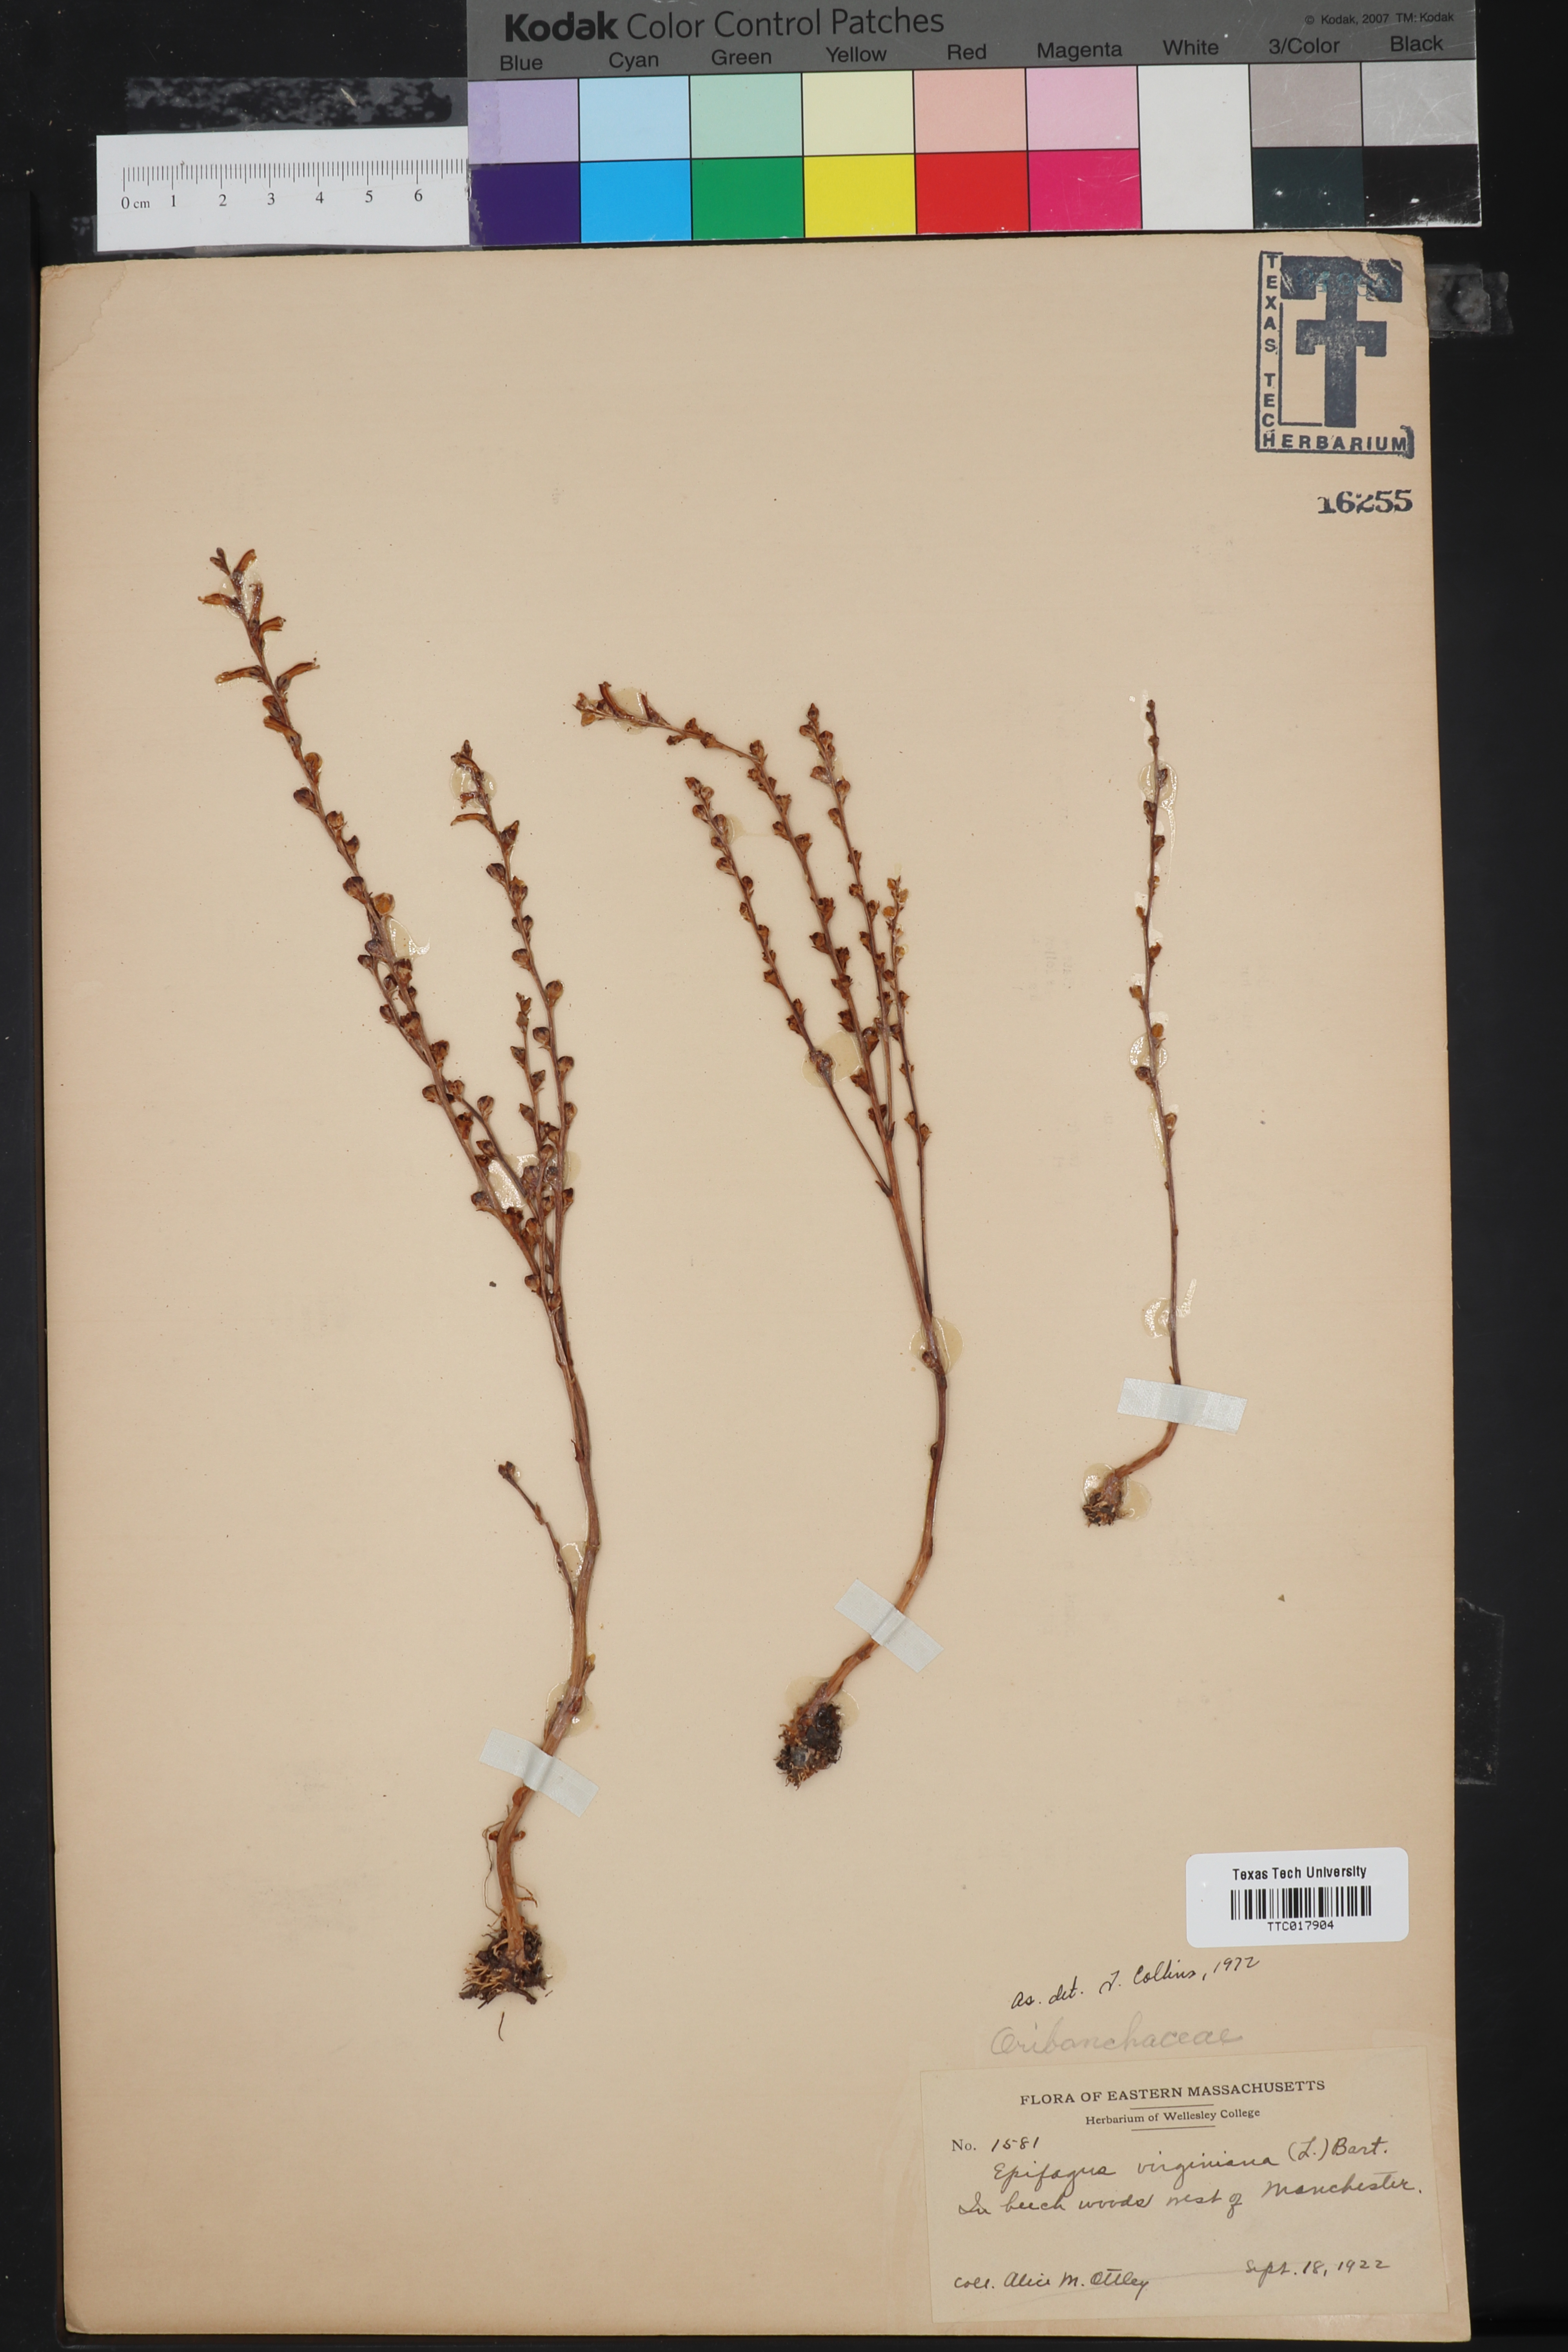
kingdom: Plantae
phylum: Tracheophyta
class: Magnoliopsida
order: Lamiales
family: Orobanchaceae
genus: Epifagus
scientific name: Epifagus virginiana
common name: Beechdrops
